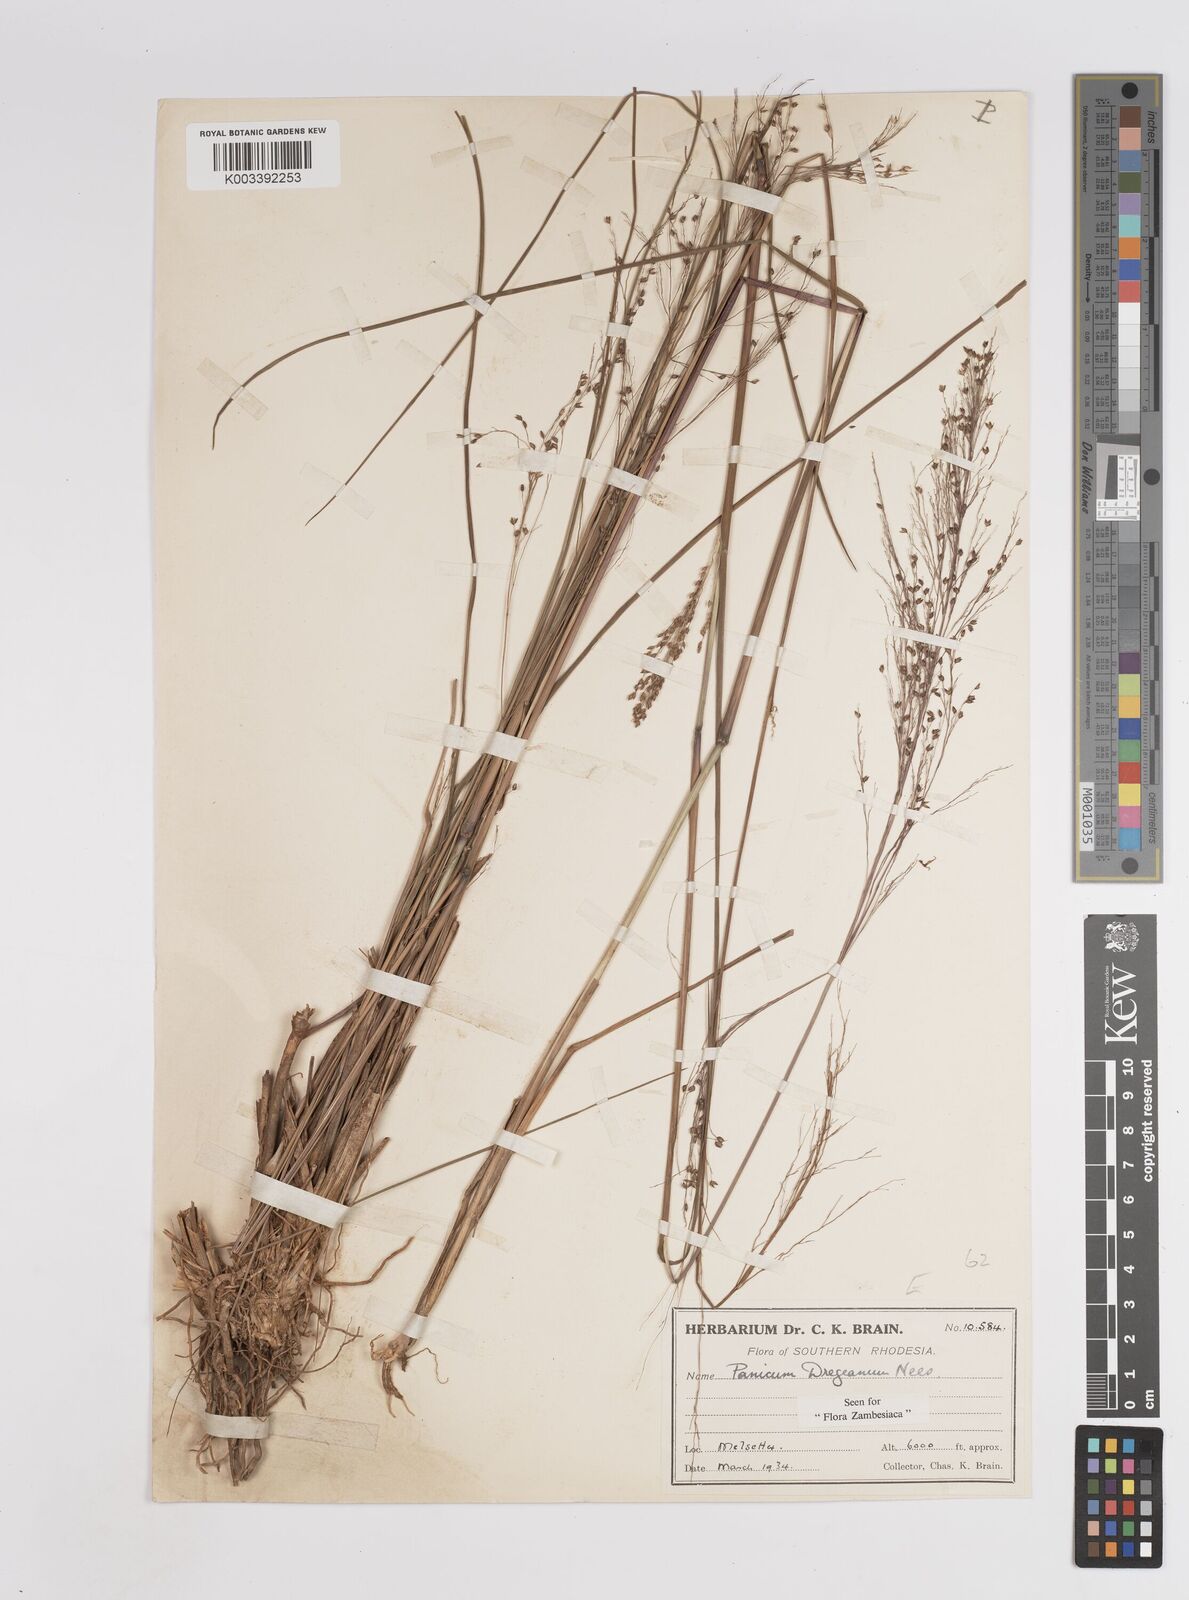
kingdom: Plantae
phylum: Tracheophyta
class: Liliopsida
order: Poales
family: Poaceae
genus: Panicum
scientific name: Panicum dregeanum
